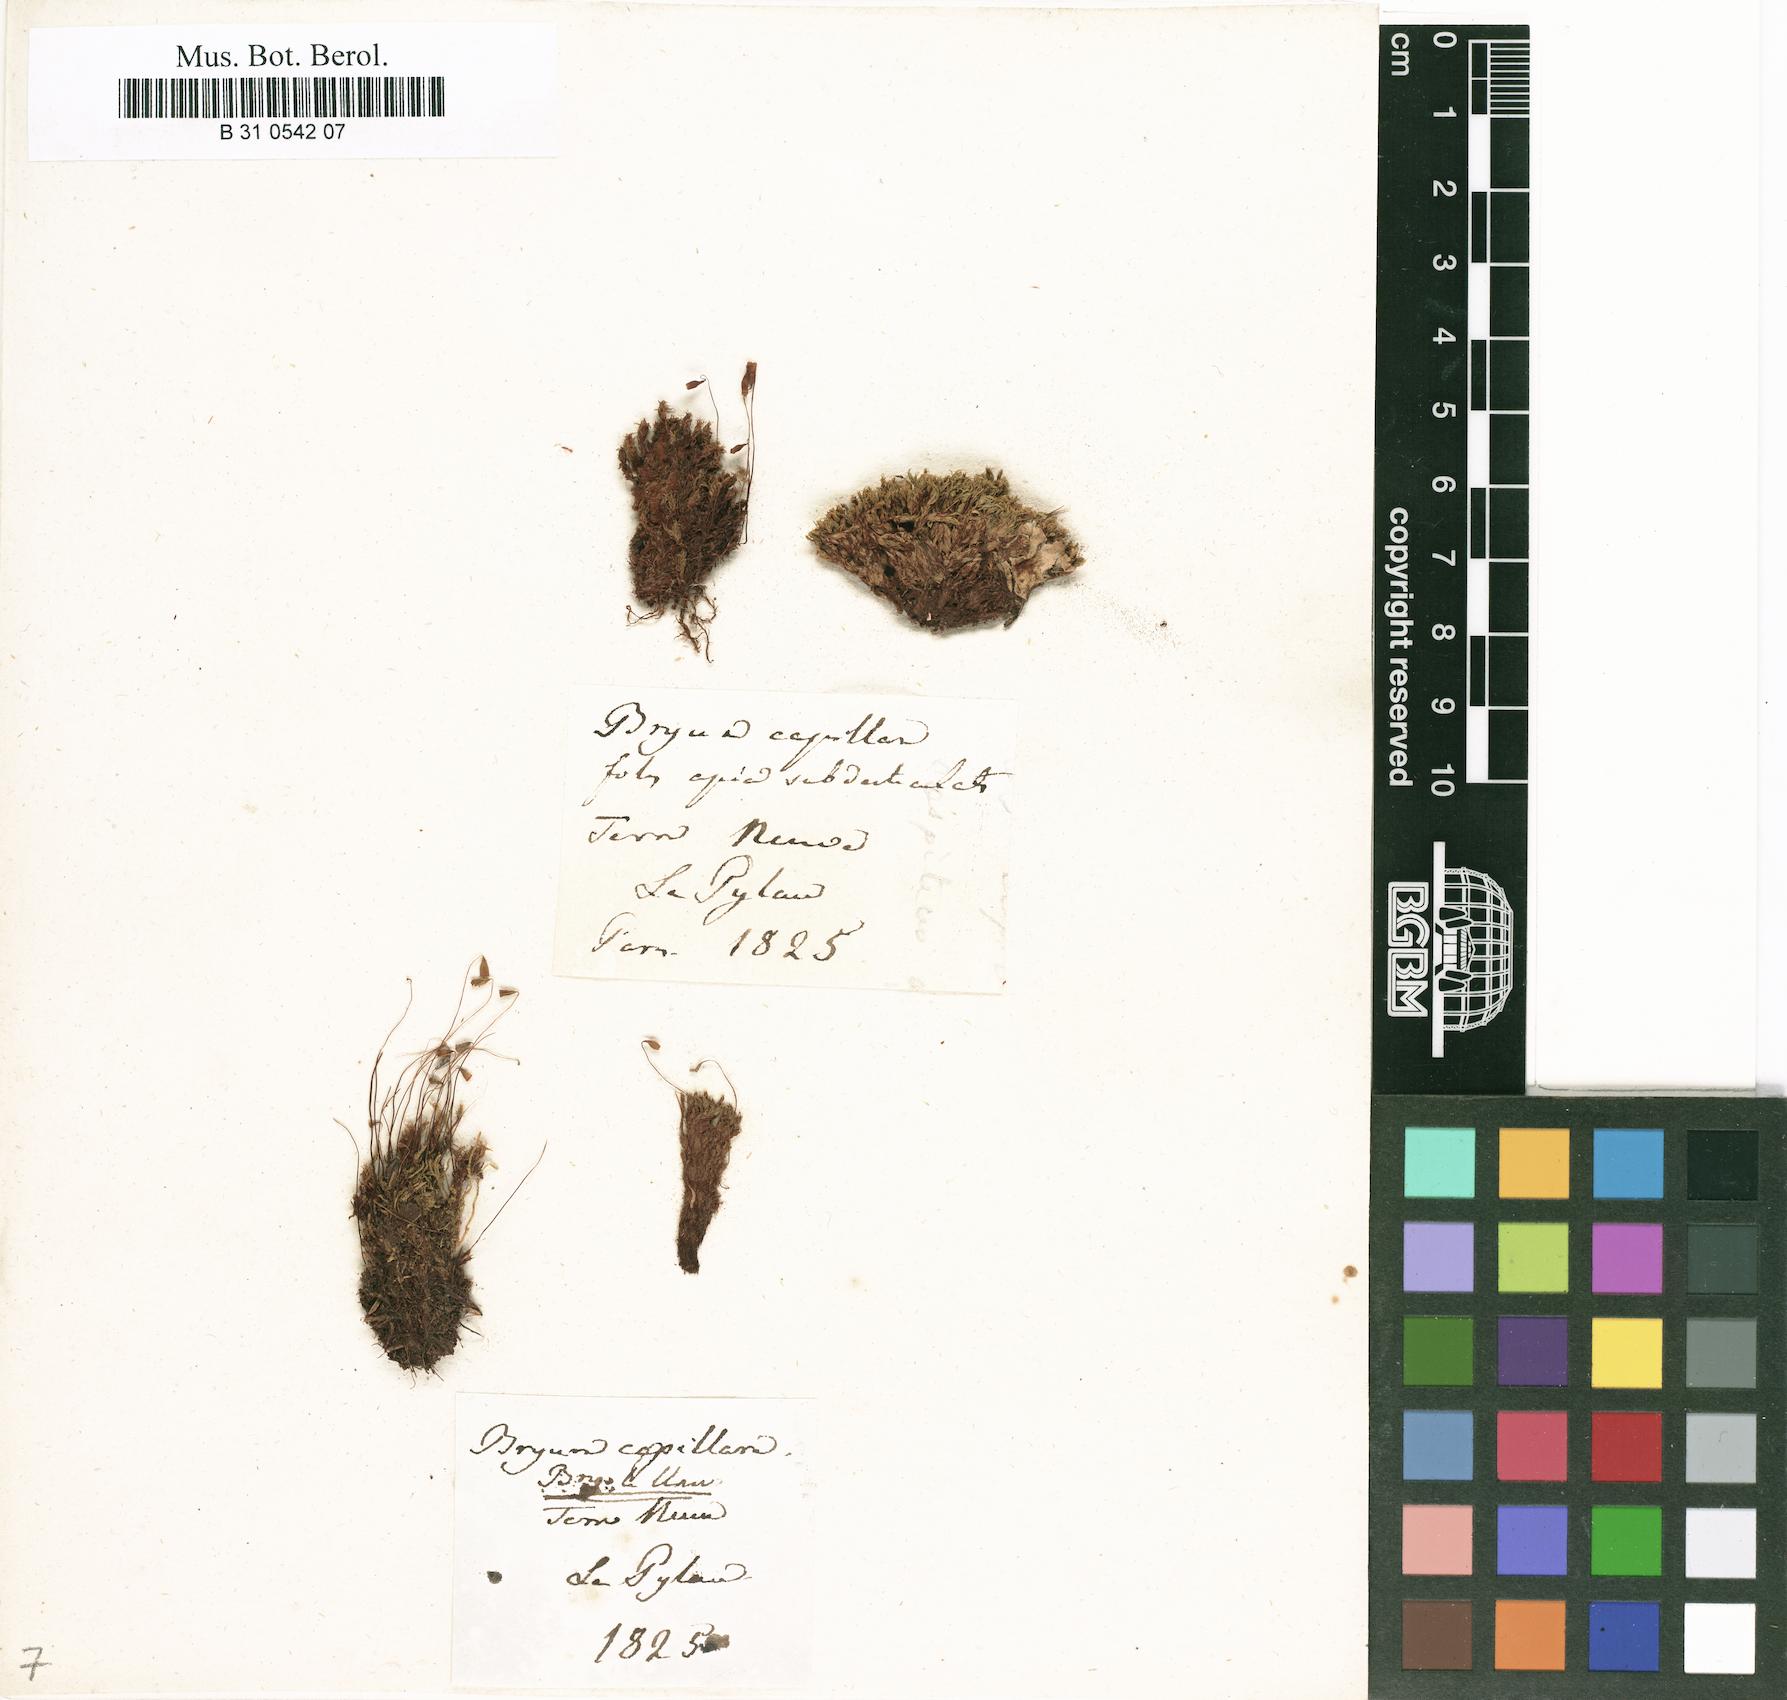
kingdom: Plantae
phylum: Bryophyta
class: Bryopsida
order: Bryales
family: Bryaceae
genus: Rosulabryum
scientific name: Rosulabryum capillare
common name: Capillary thread-moss
